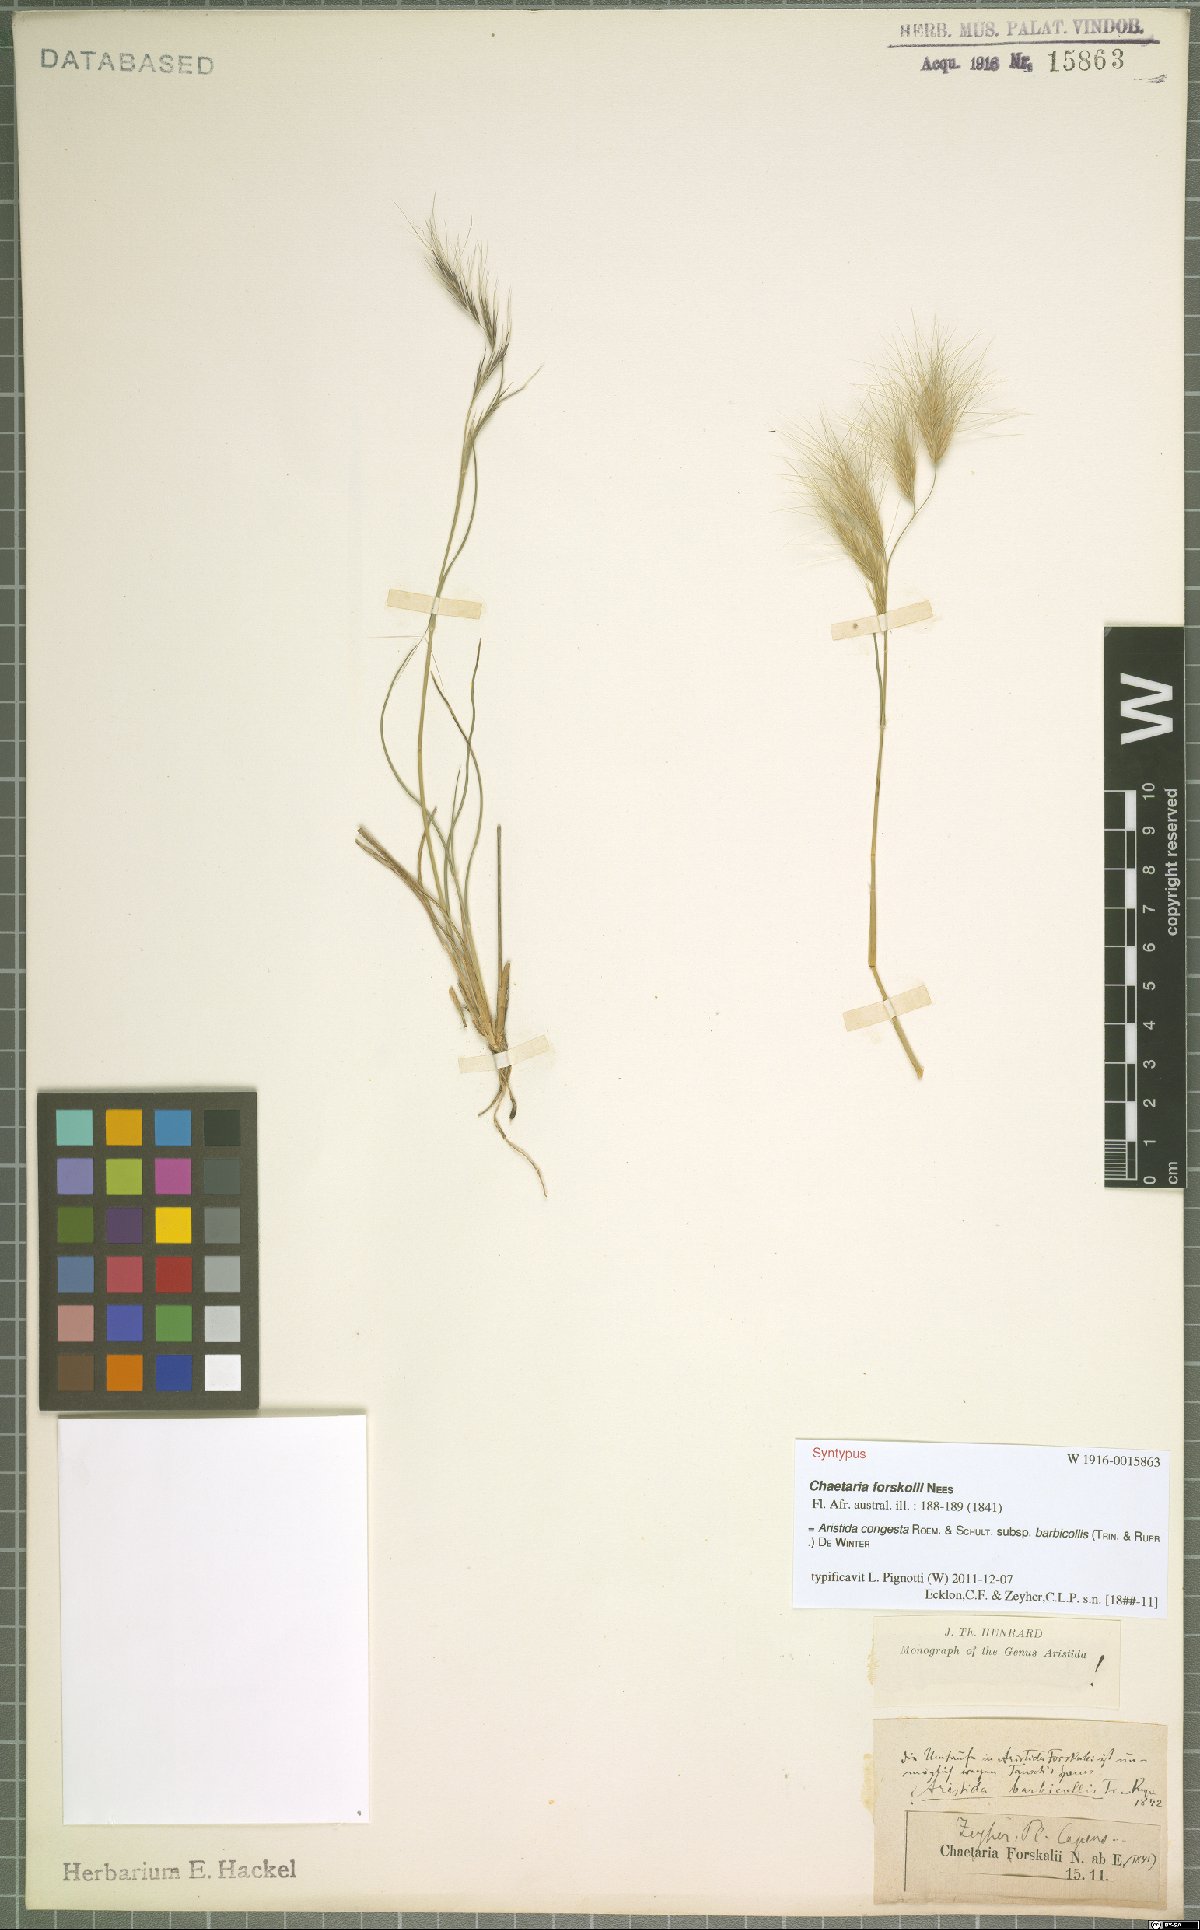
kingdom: Plantae
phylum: Tracheophyta
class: Liliopsida
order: Poales
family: Poaceae
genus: Aristida
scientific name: Aristida barbicollis
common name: Spreading prickle grass
